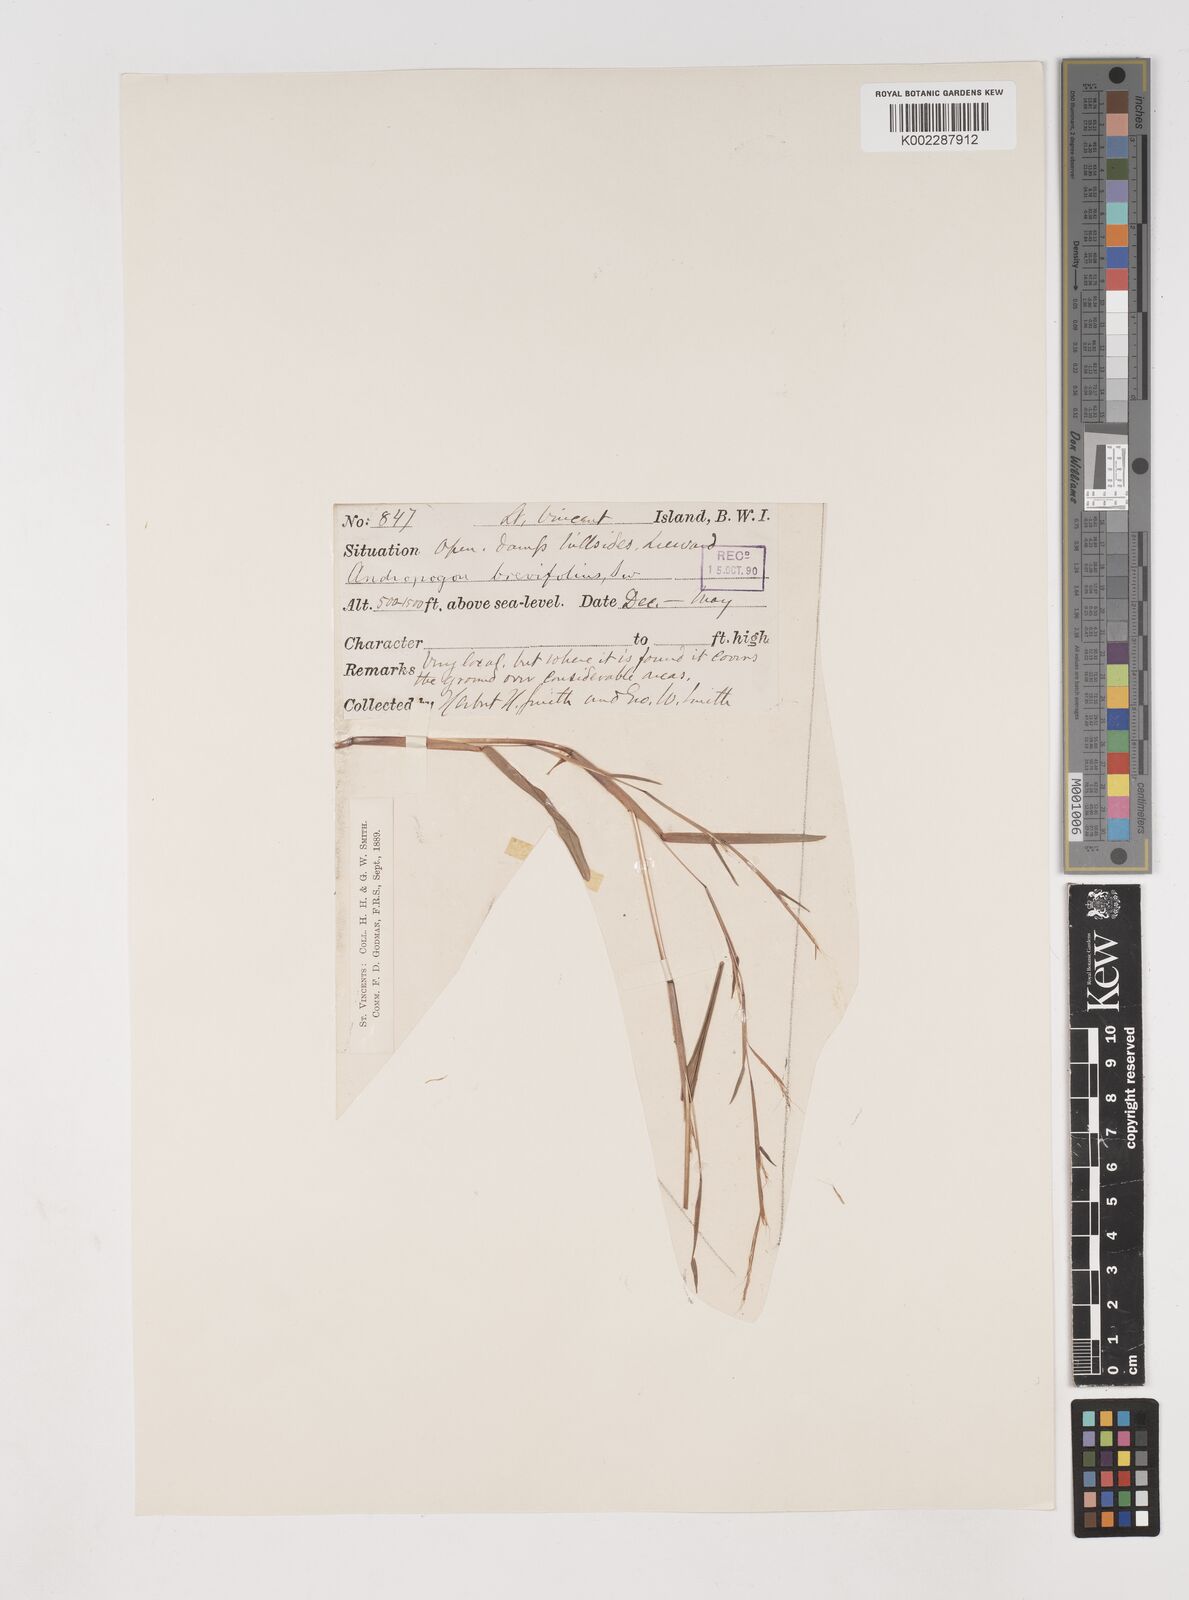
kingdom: Plantae
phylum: Tracheophyta
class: Liliopsida
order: Poales
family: Poaceae
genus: Schizachyrium
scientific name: Schizachyrium brevifolium
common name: Serillo dulce
